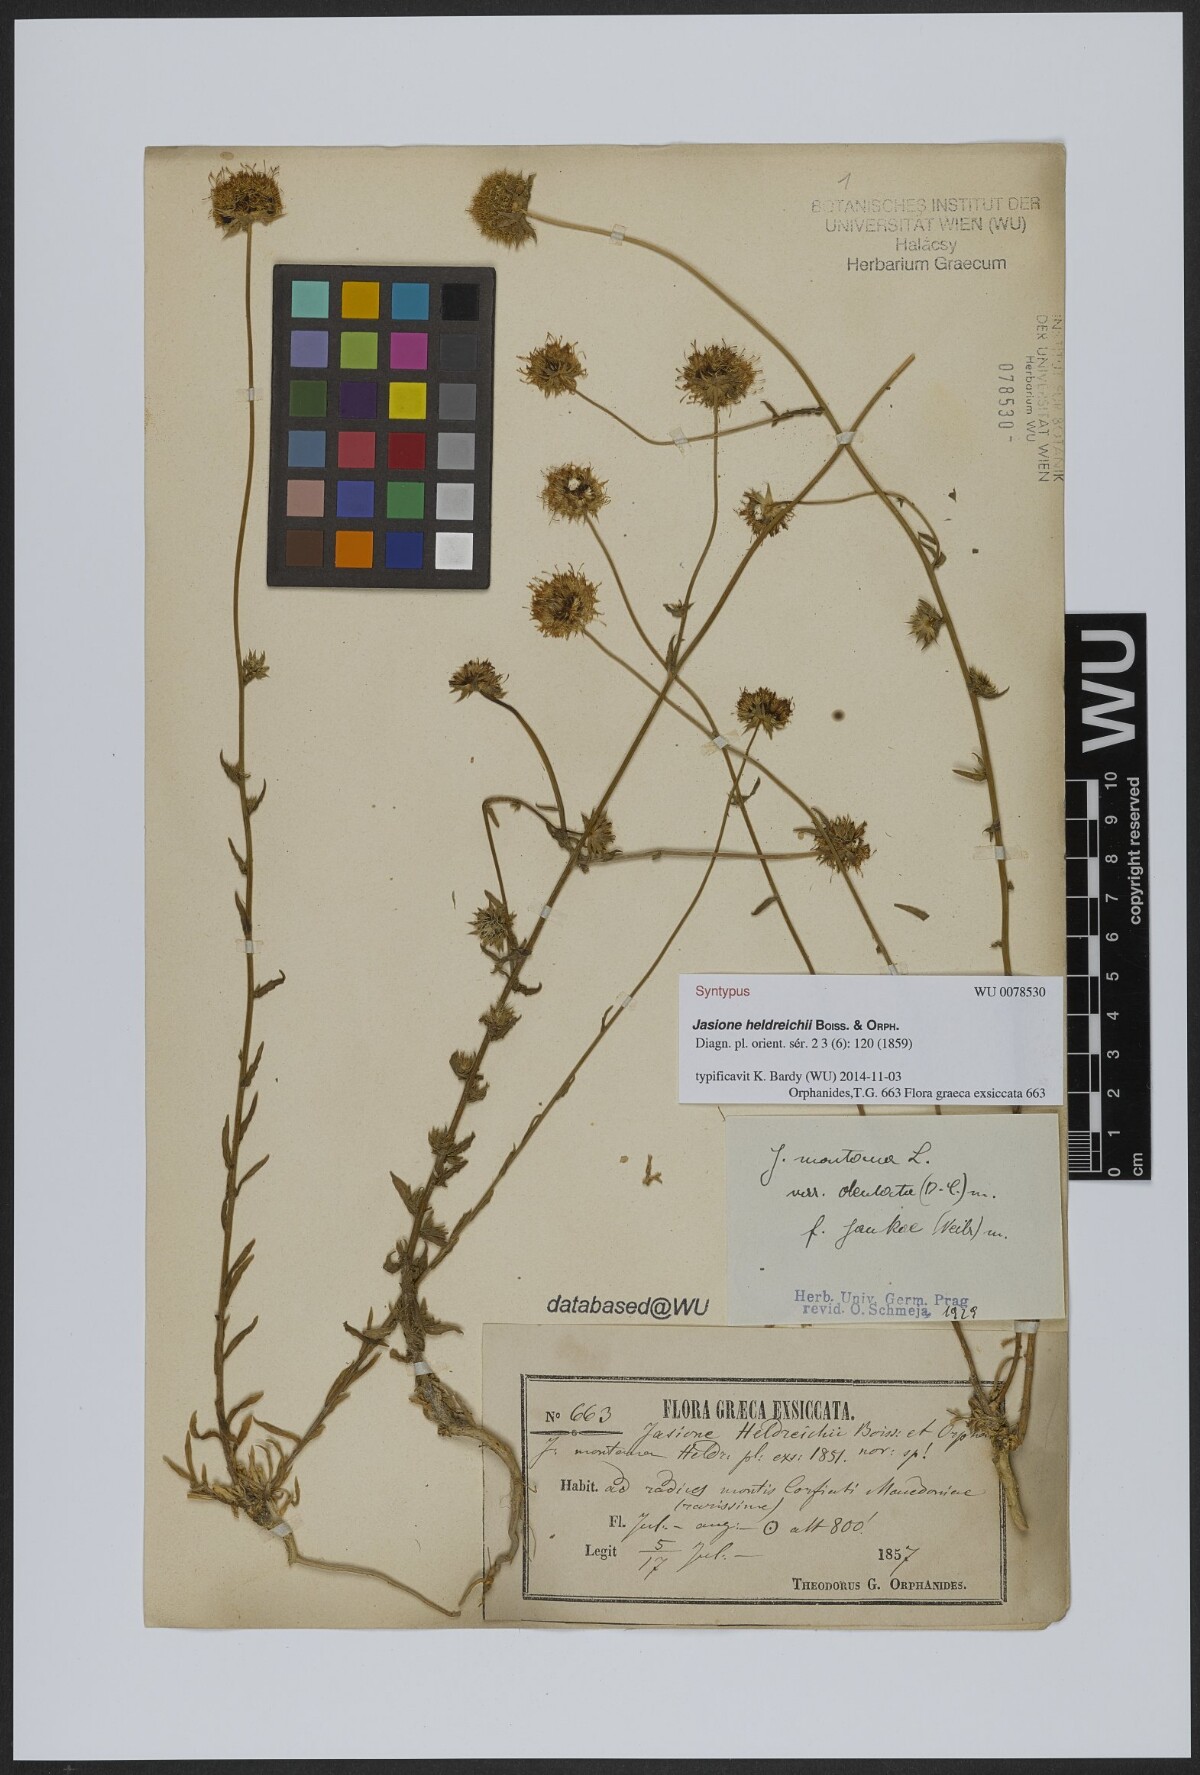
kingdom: Plantae
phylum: Tracheophyta
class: Magnoliopsida
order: Asterales
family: Campanulaceae
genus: Jasione
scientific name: Jasione heldreichii
